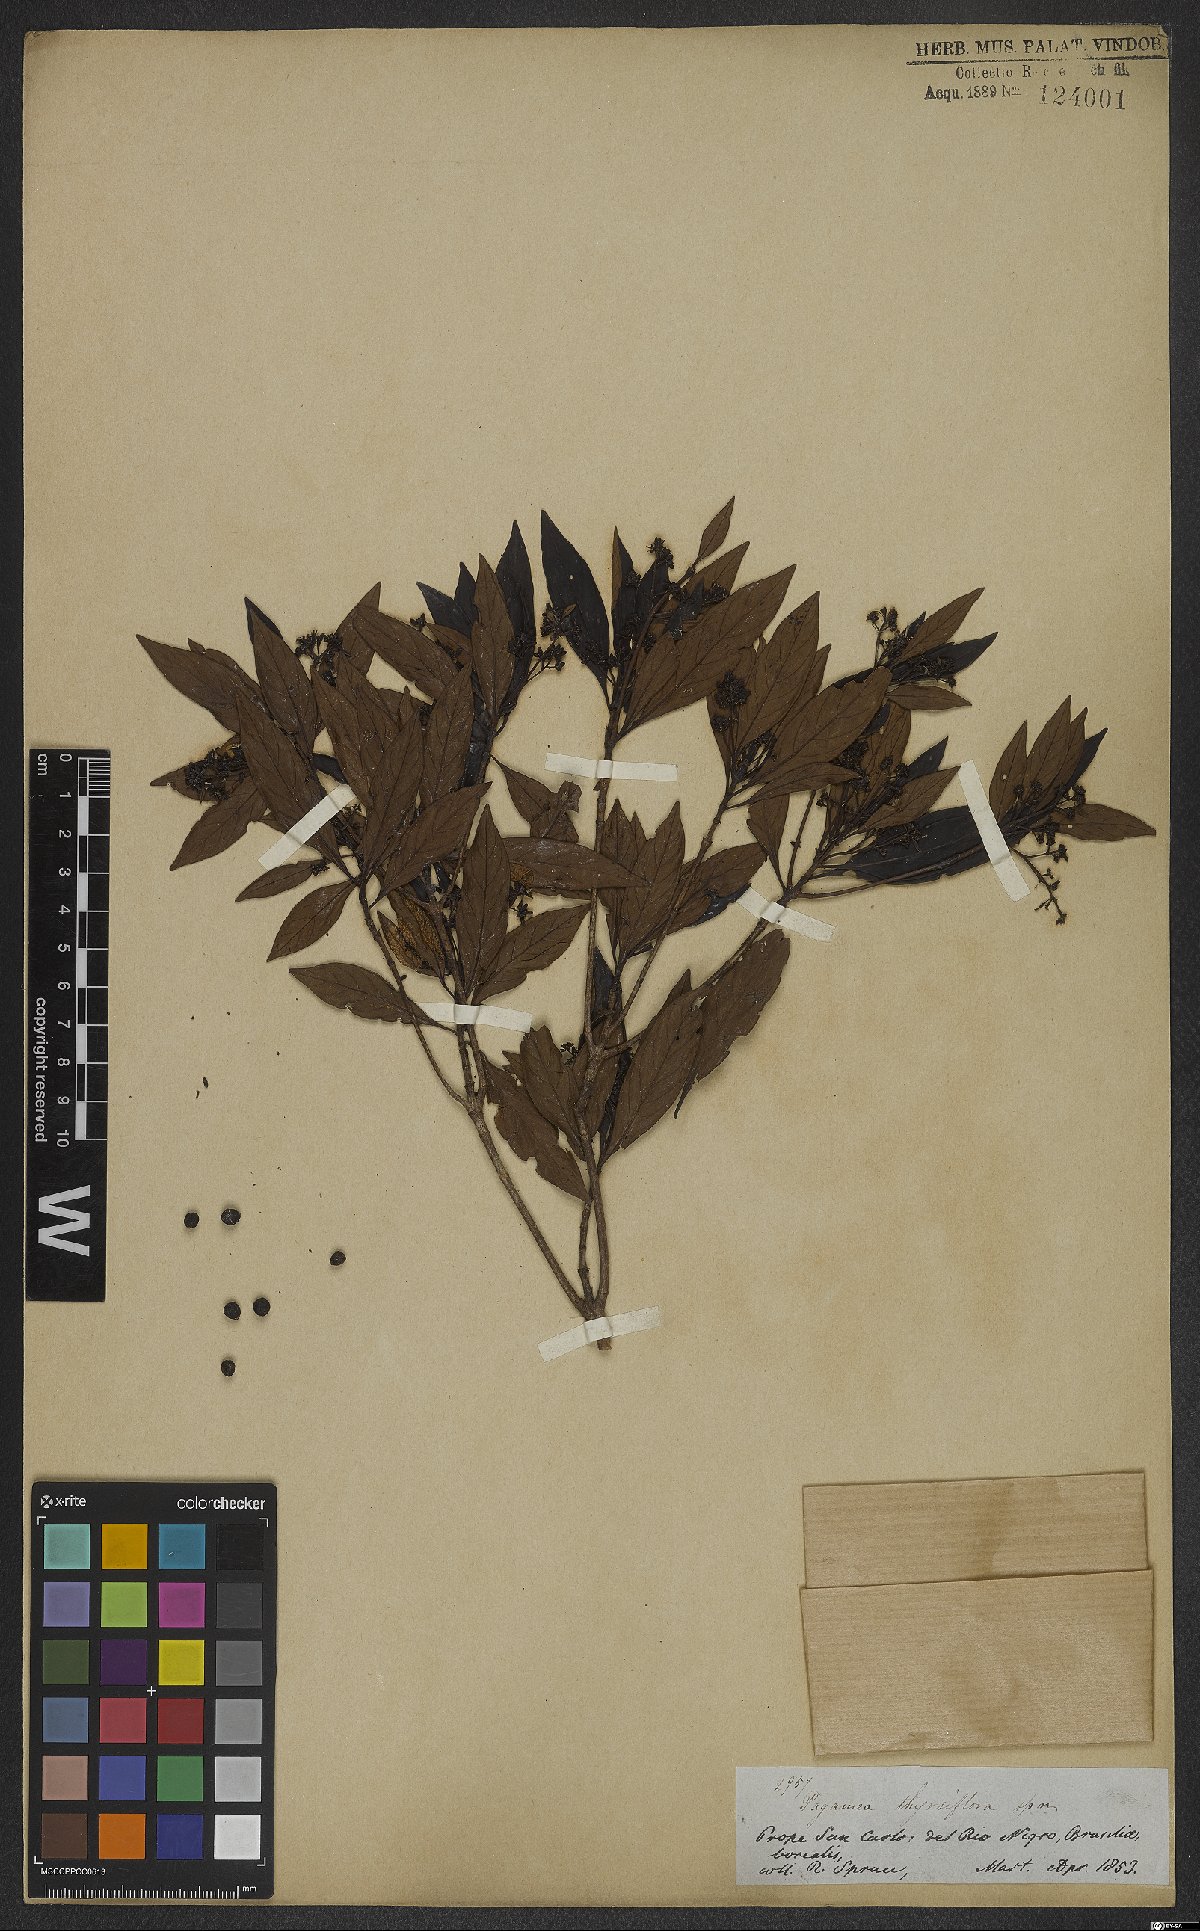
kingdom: Plantae
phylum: Tracheophyta
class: Magnoliopsida
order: Gentianales
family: Rubiaceae
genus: Pagamea
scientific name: Pagamea thyrsiflora
